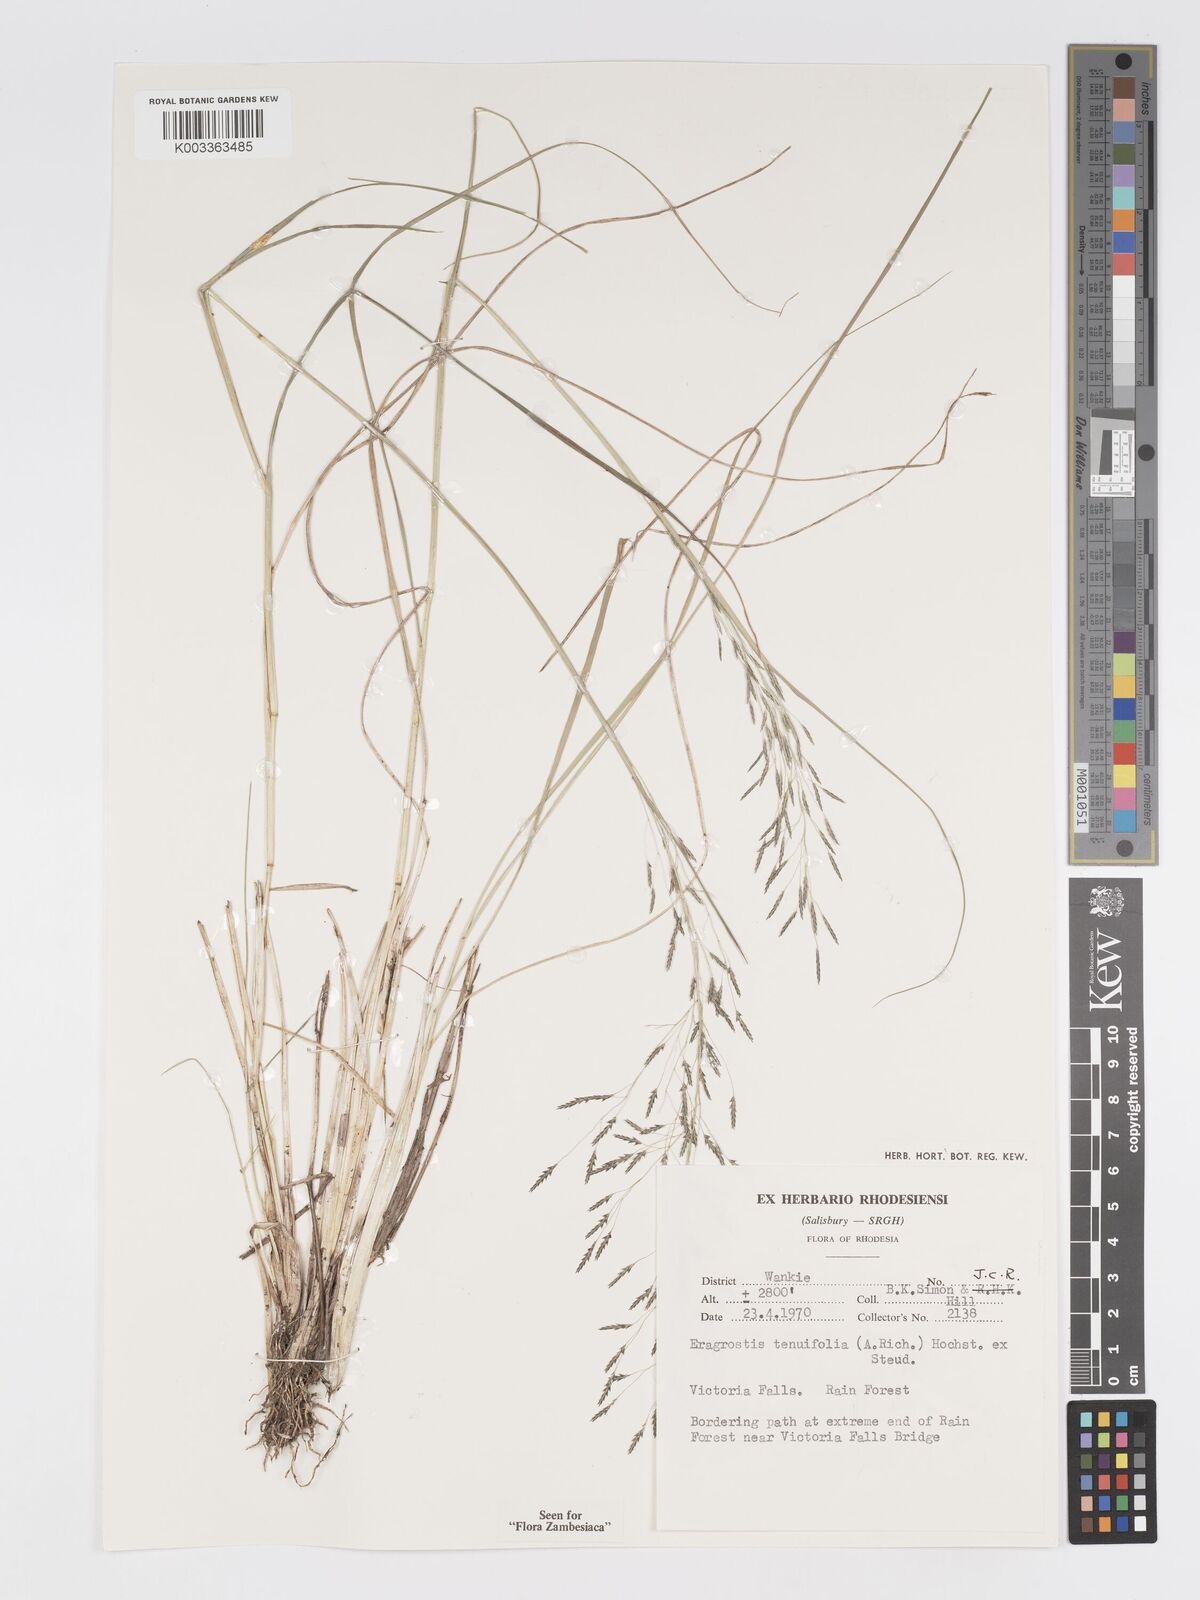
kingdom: Plantae
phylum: Tracheophyta
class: Liliopsida
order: Poales
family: Poaceae
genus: Eragrostis
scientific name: Eragrostis tenuifolia
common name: Elastic grass
